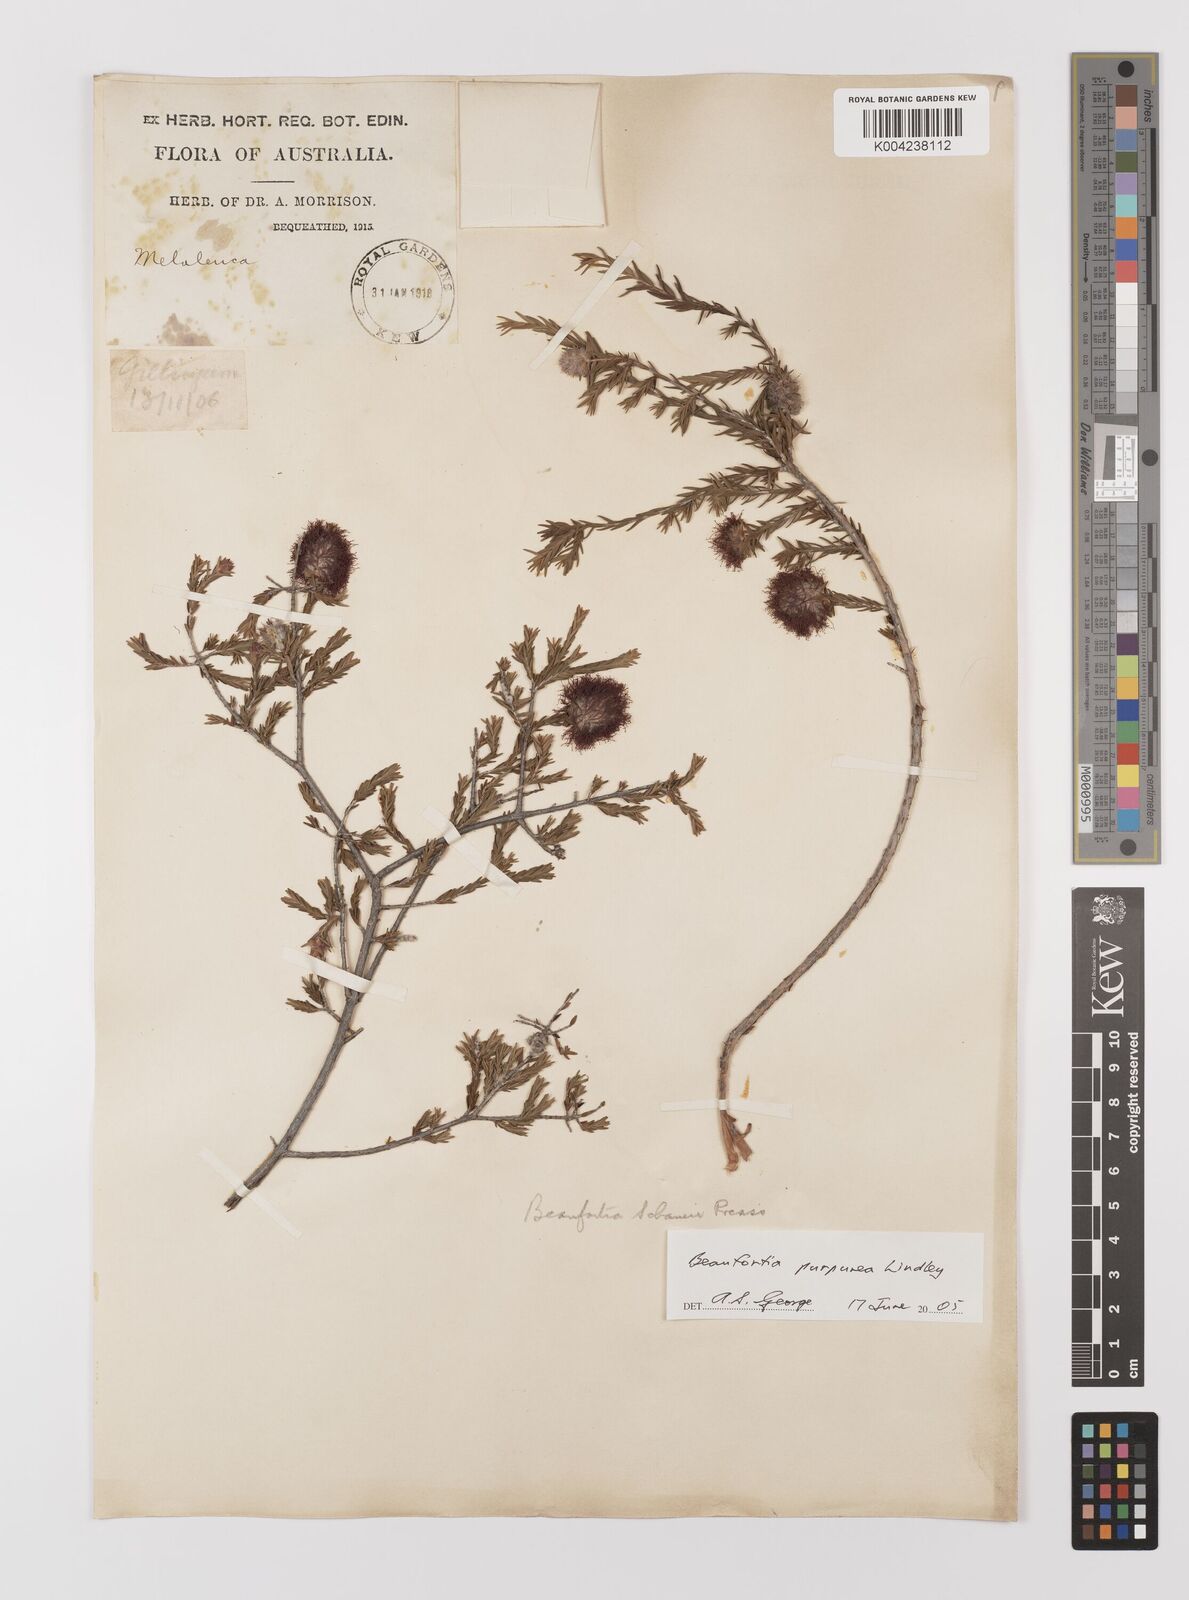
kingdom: Plantae
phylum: Tracheophyta
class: Magnoliopsida
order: Myrtales
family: Myrtaceae
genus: Melaleuca
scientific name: Melaleuca purpurea
